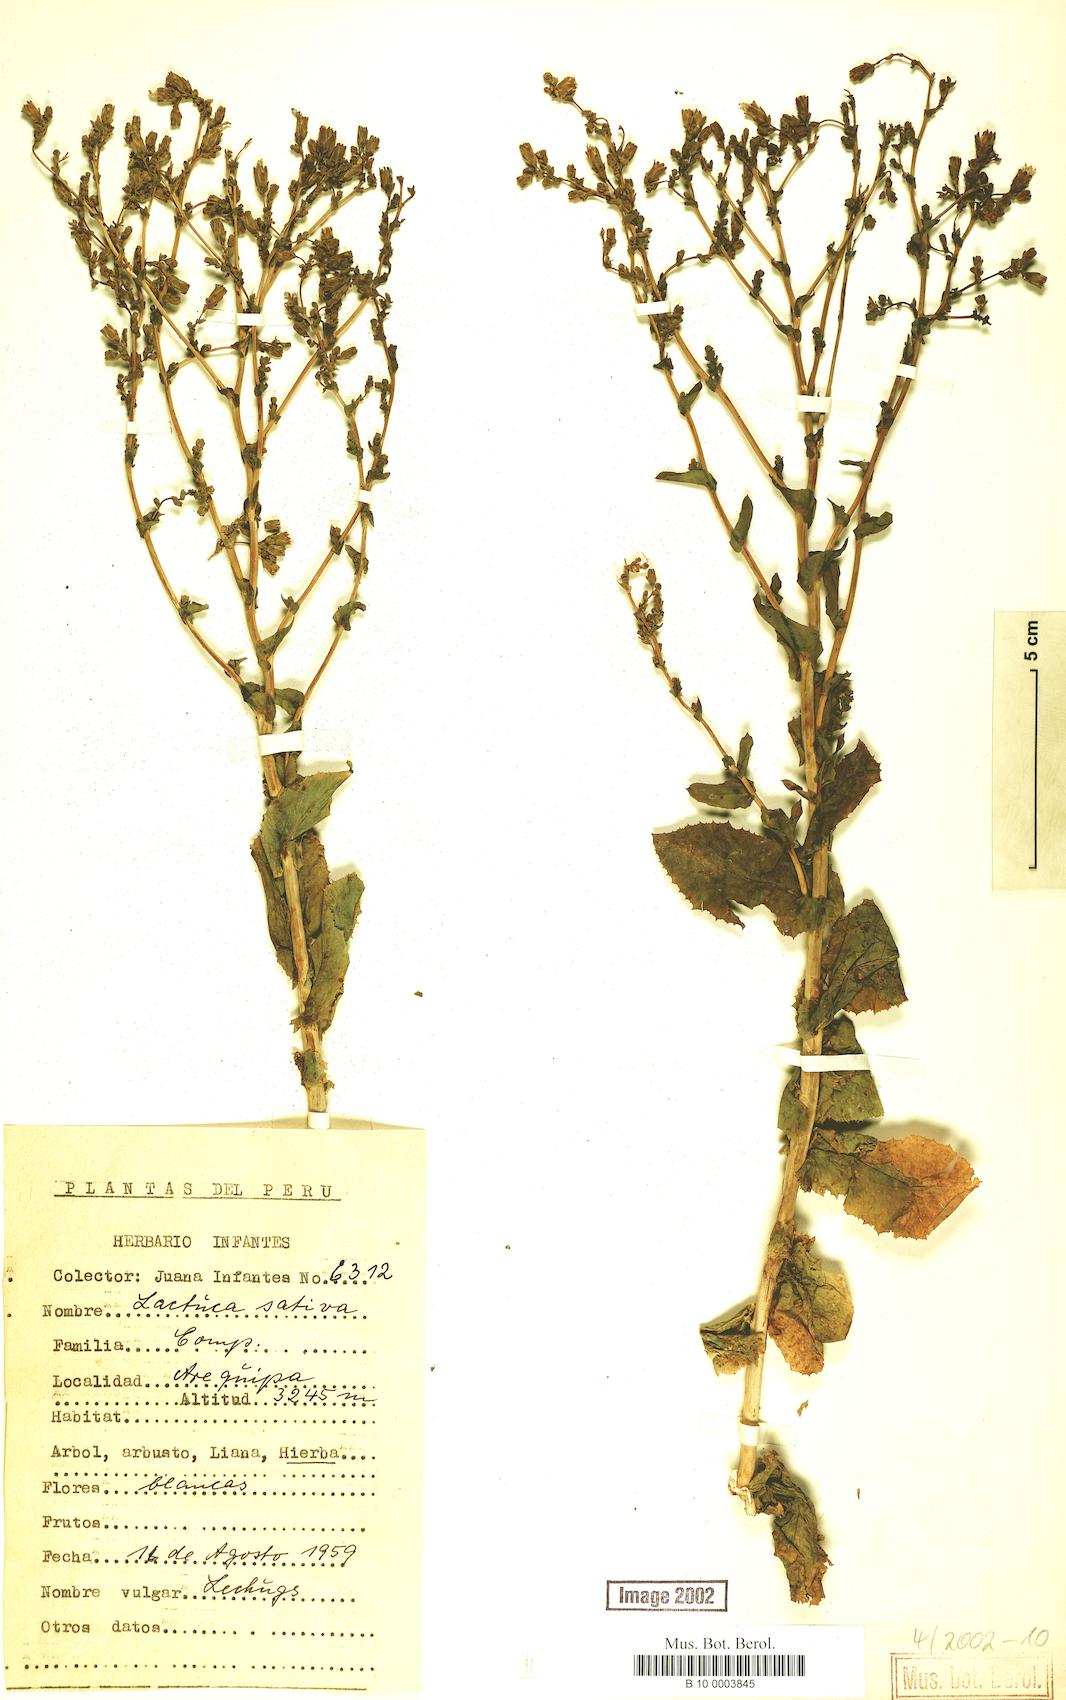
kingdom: Plantae
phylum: Tracheophyta
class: Magnoliopsida
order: Asterales
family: Asteraceae
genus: Lactuca
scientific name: Lactuca sativa
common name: Garden lettuce
